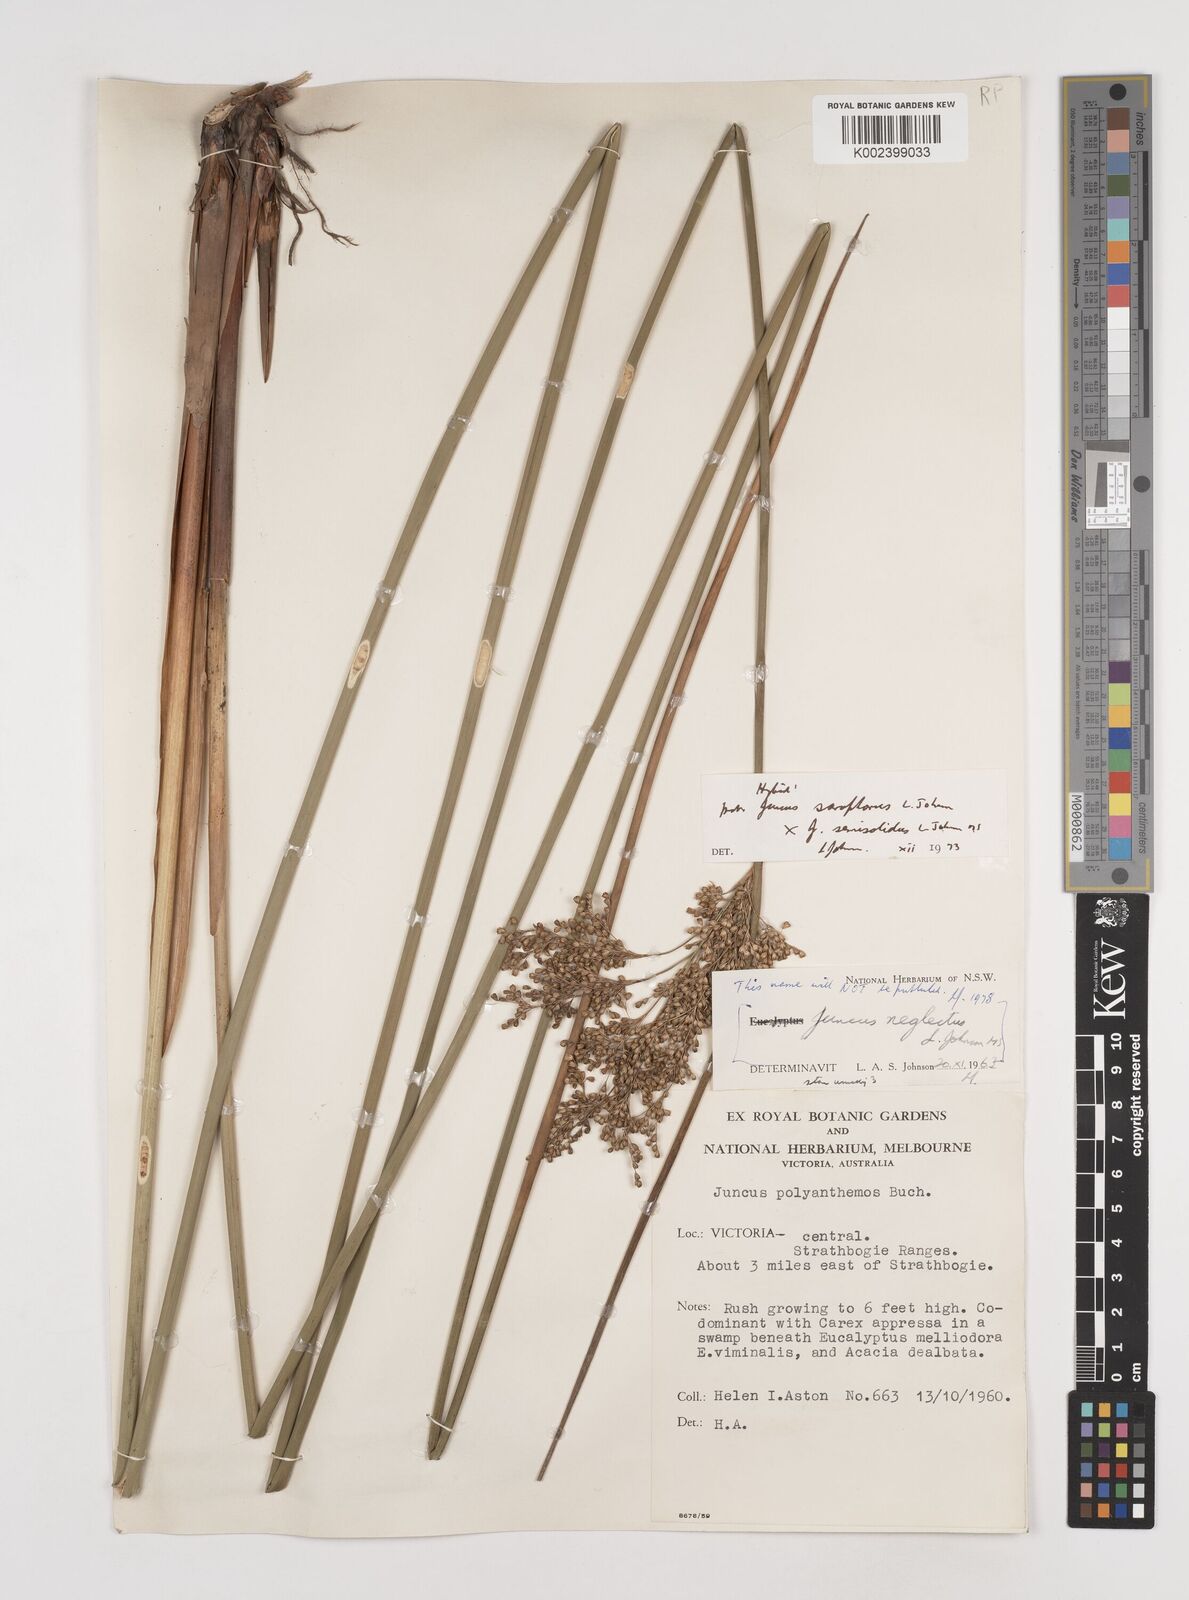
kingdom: Plantae
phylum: Tracheophyta
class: Liliopsida
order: Poales
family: Juncaceae
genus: Juncus
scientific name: Juncus sarophorus
